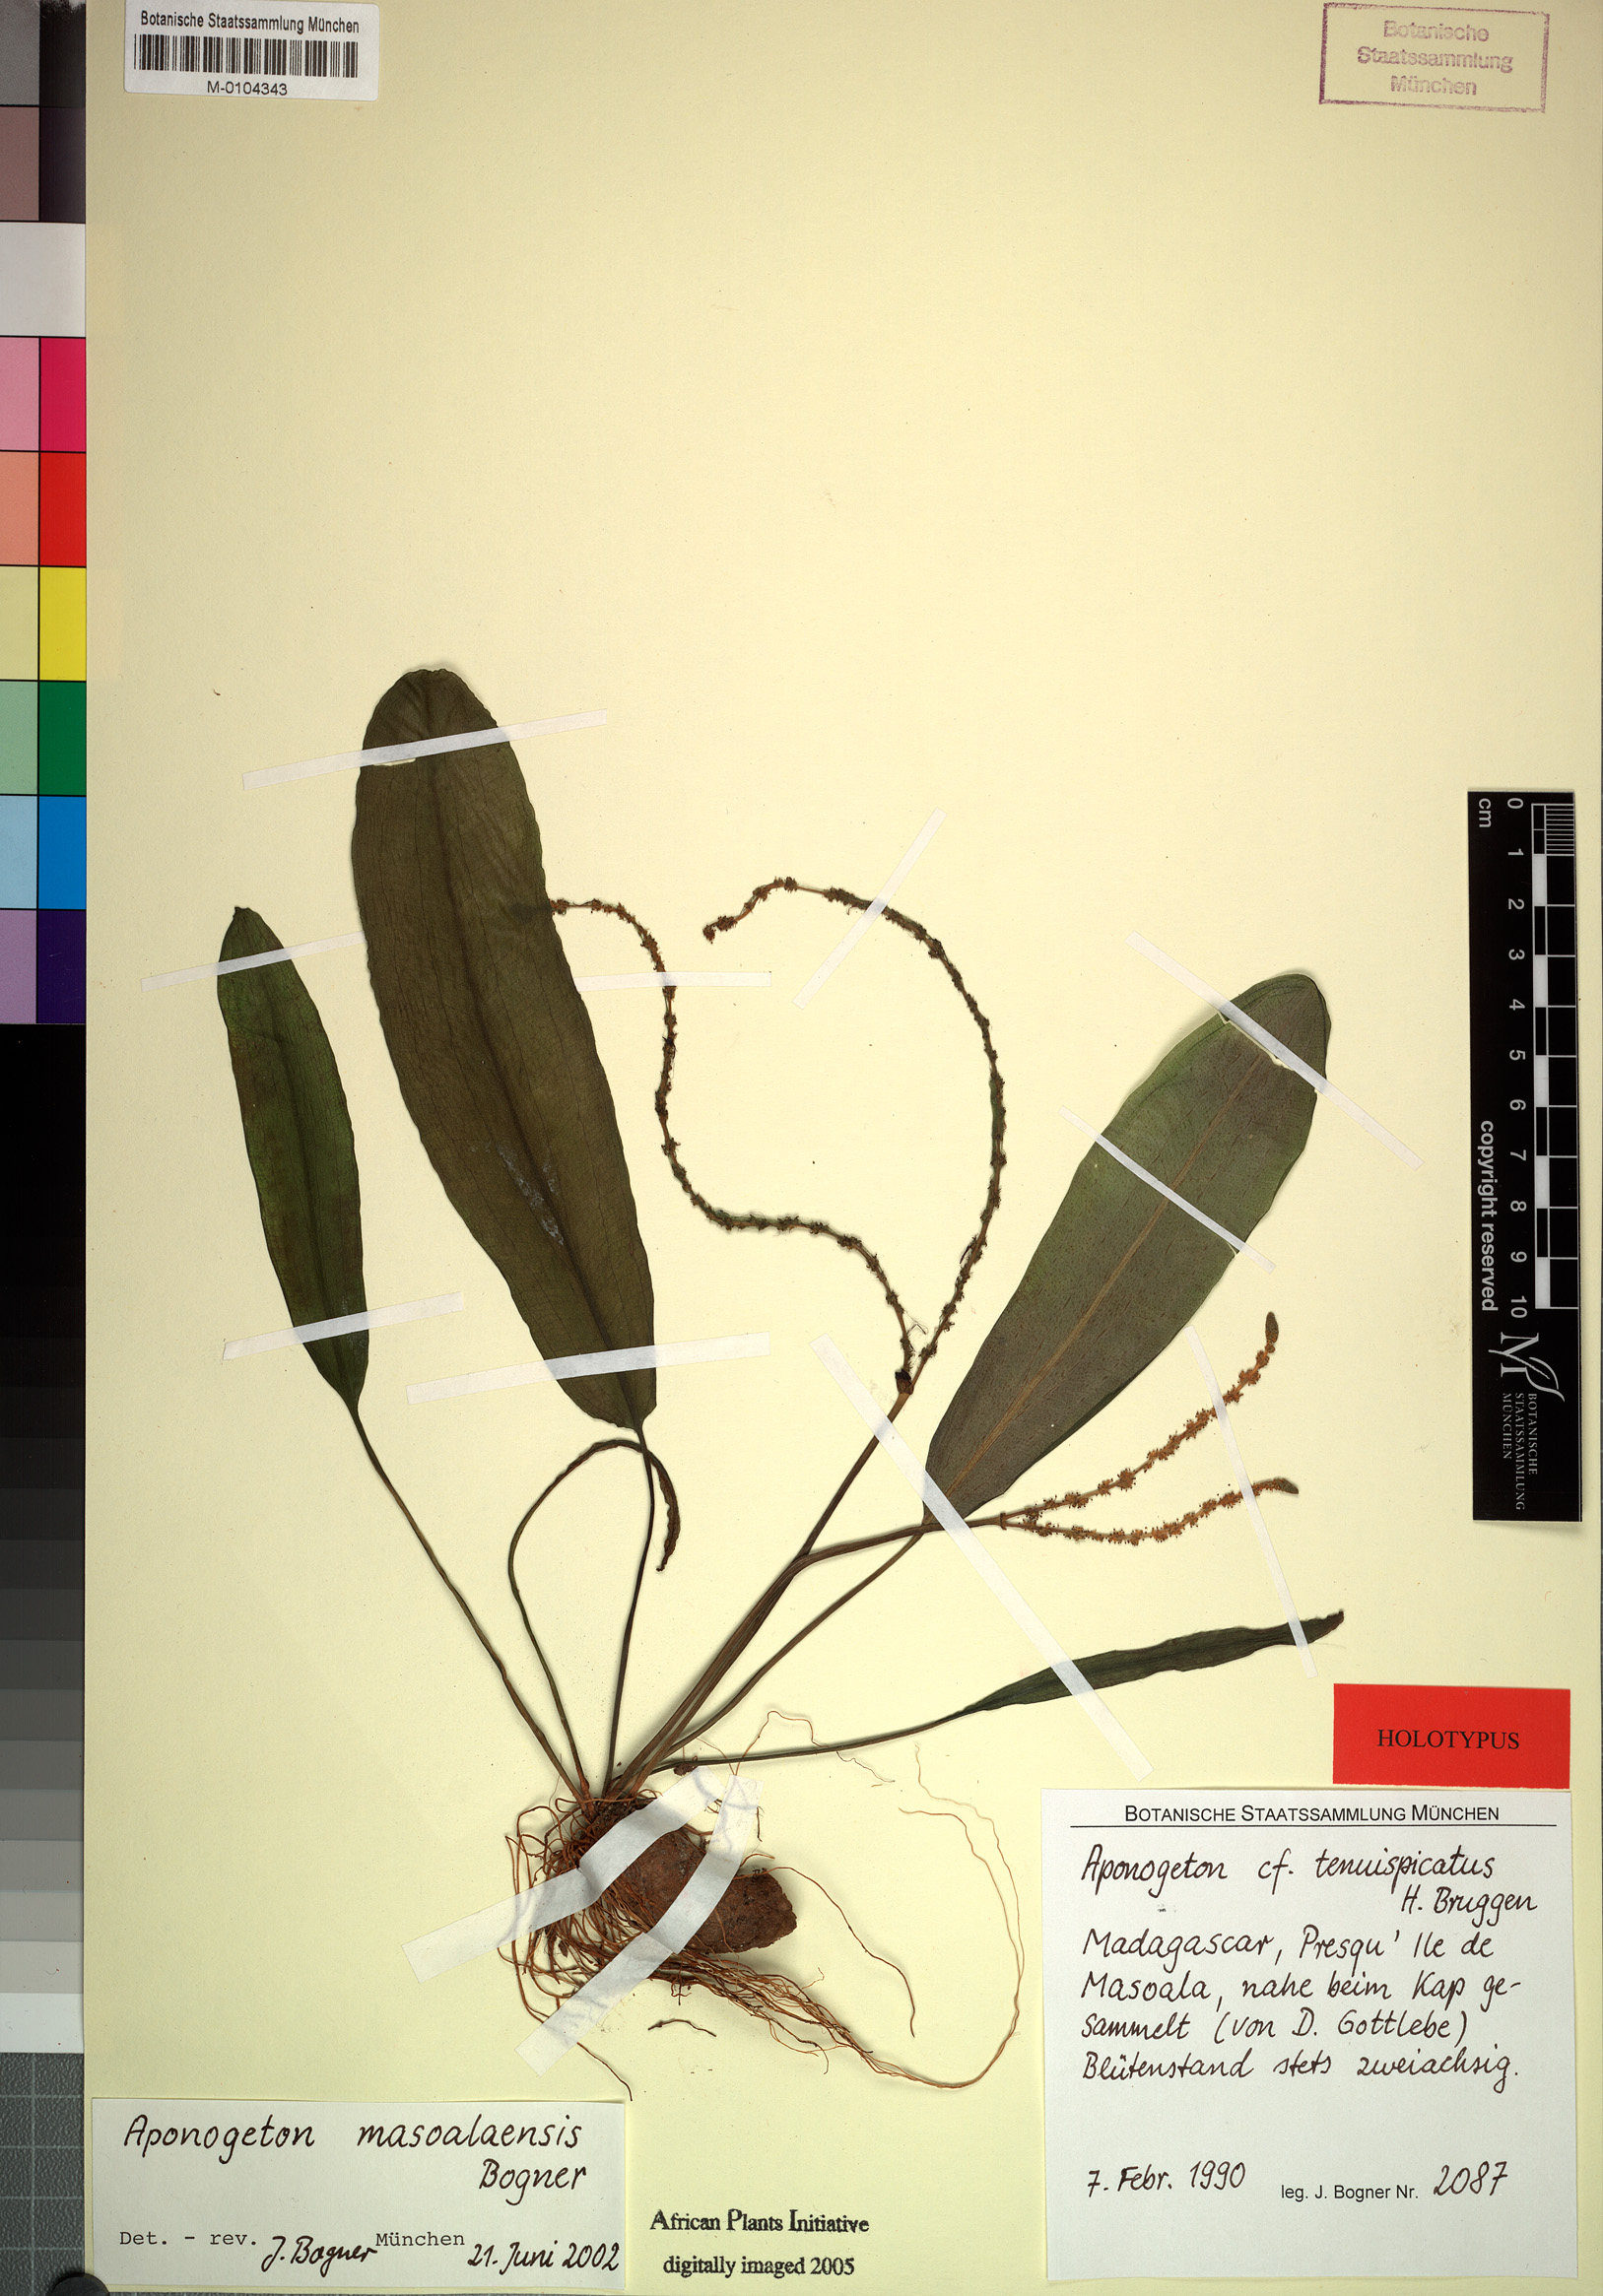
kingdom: Plantae
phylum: Tracheophyta
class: Liliopsida
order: Alismatales
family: Aponogetonaceae
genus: Aponogeton
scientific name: Aponogeton masoalaensis
